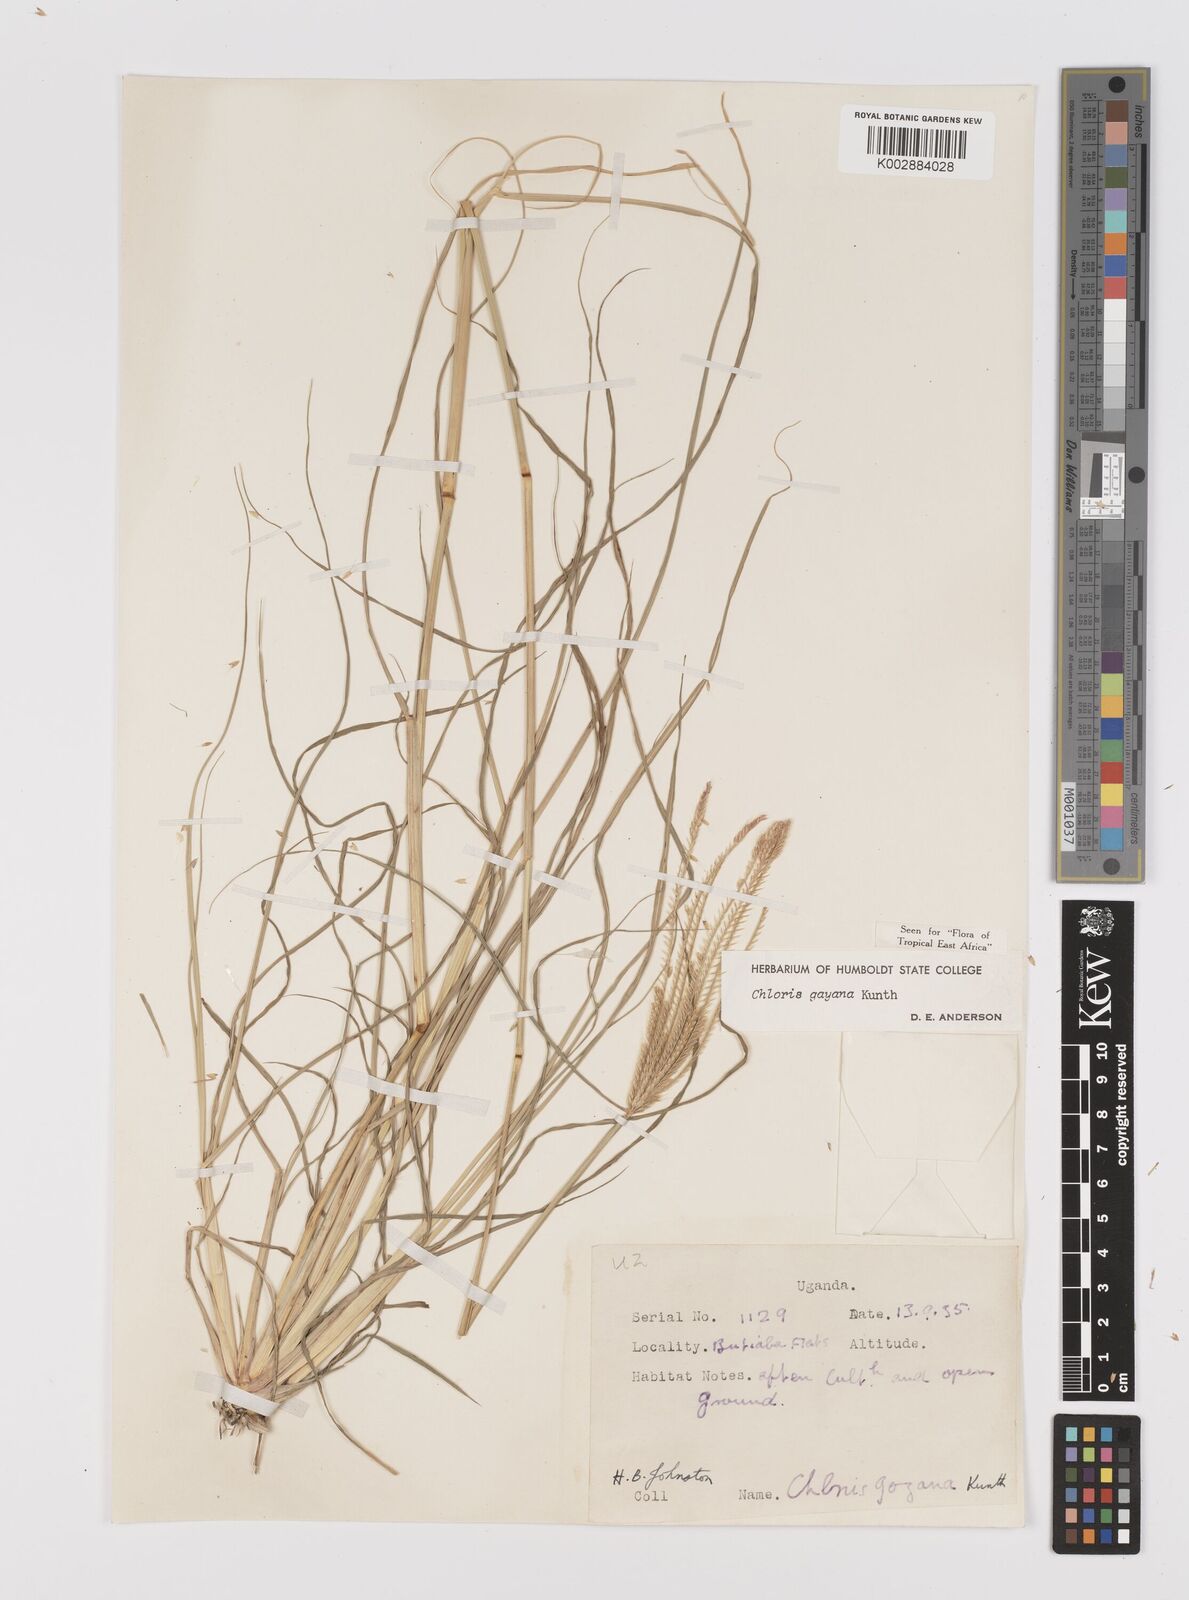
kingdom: Plantae
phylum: Tracheophyta
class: Liliopsida
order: Poales
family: Poaceae
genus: Chloris
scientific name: Chloris gayana
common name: Rhodes grass
